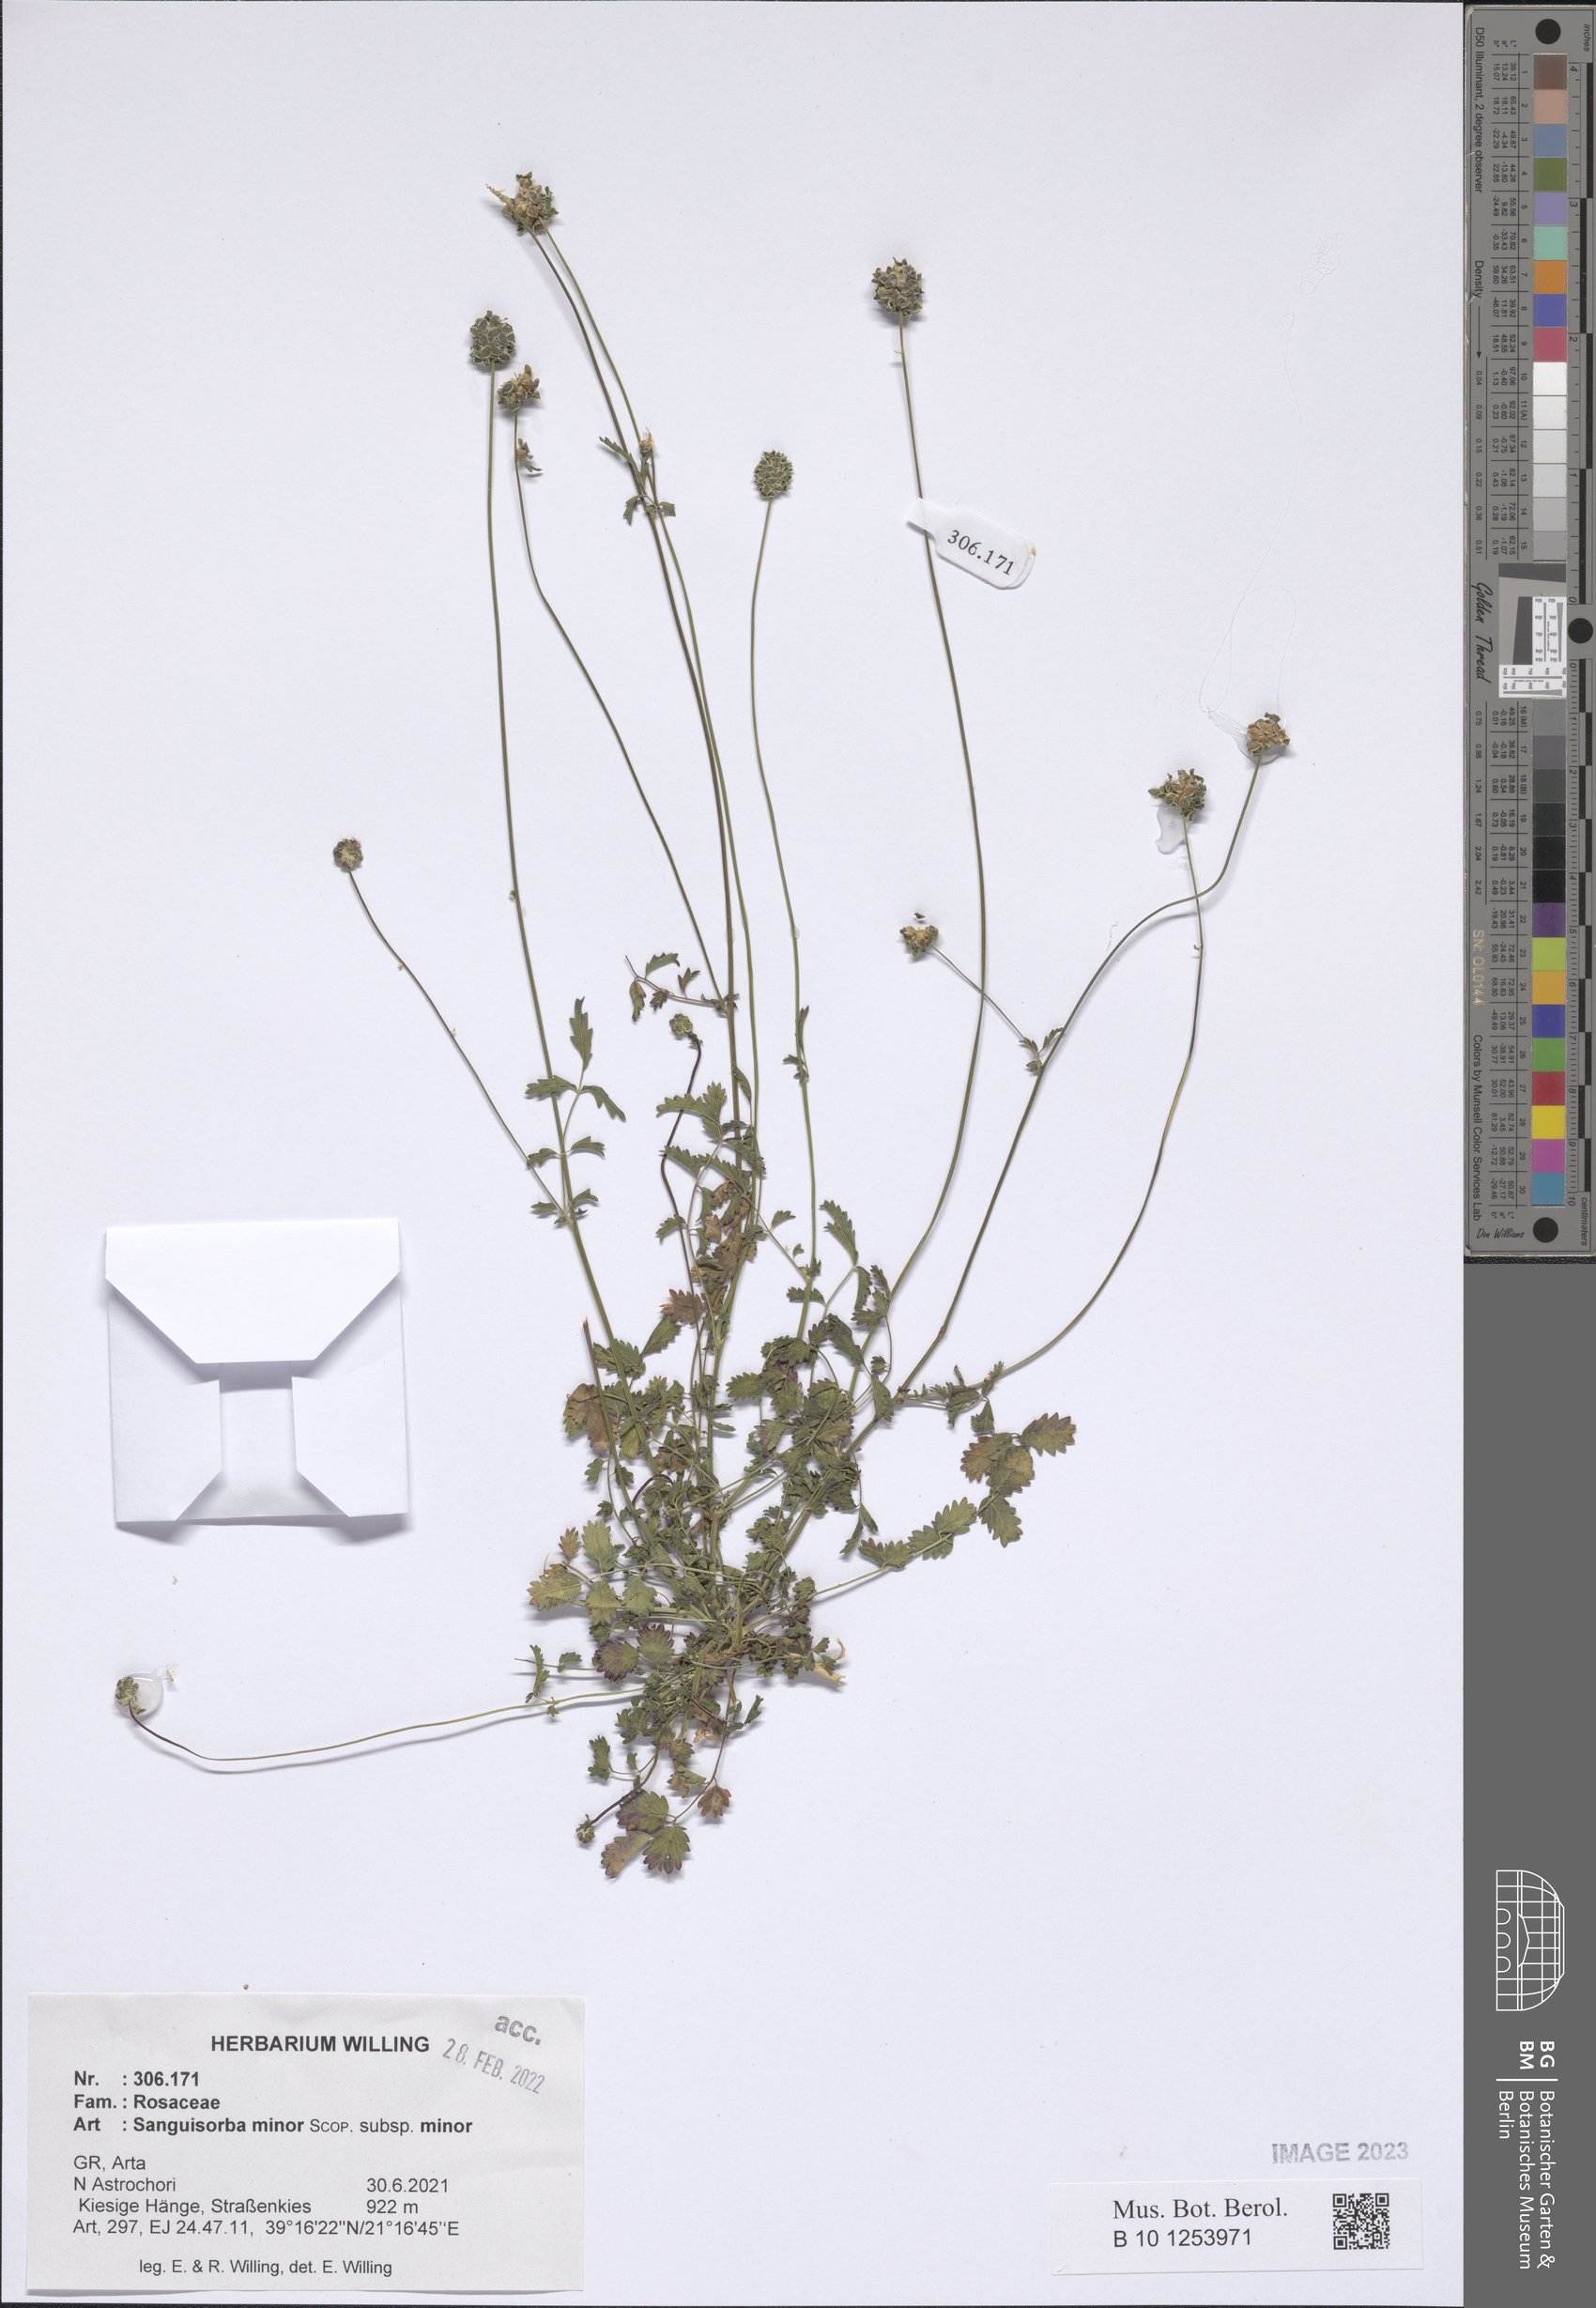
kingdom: Plantae
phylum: Tracheophyta
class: Magnoliopsida
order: Rosales
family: Rosaceae
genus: Poterium
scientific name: Poterium sanguisorba
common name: Salad burnet
